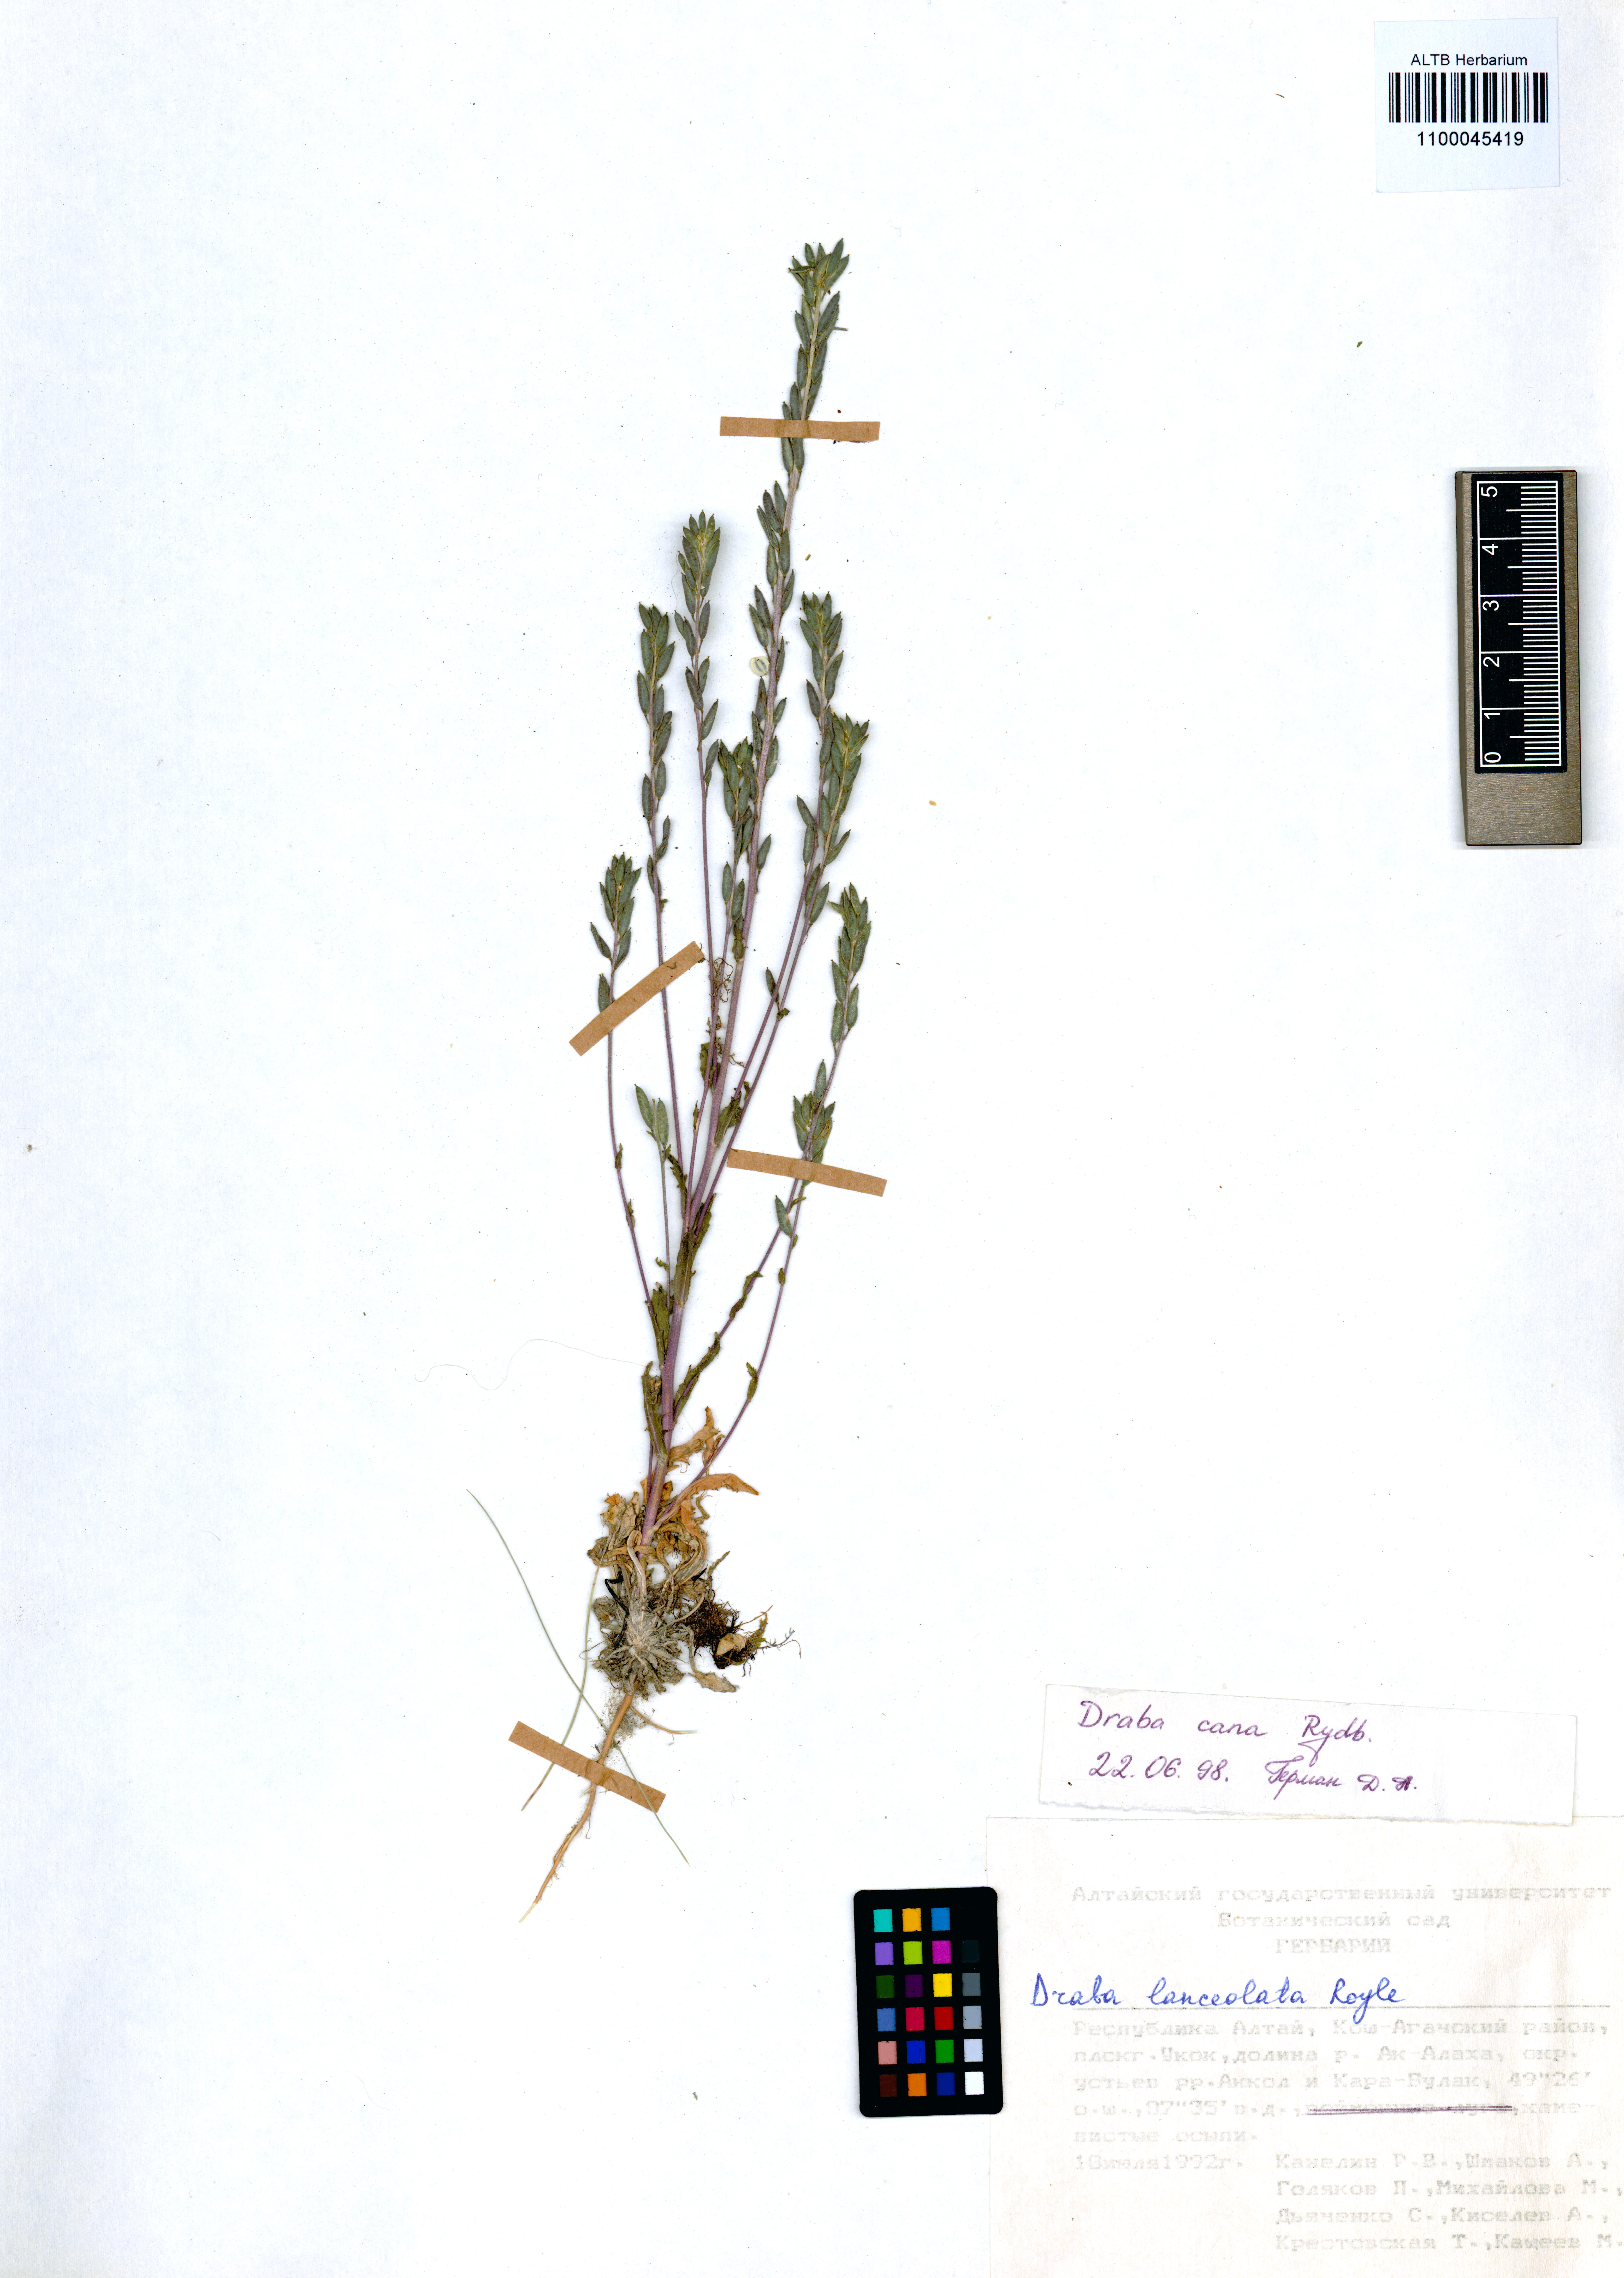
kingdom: Plantae
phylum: Tracheophyta
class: Magnoliopsida
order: Brassicales
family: Brassicaceae
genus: Draba
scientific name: Draba cana
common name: Hoary draba
